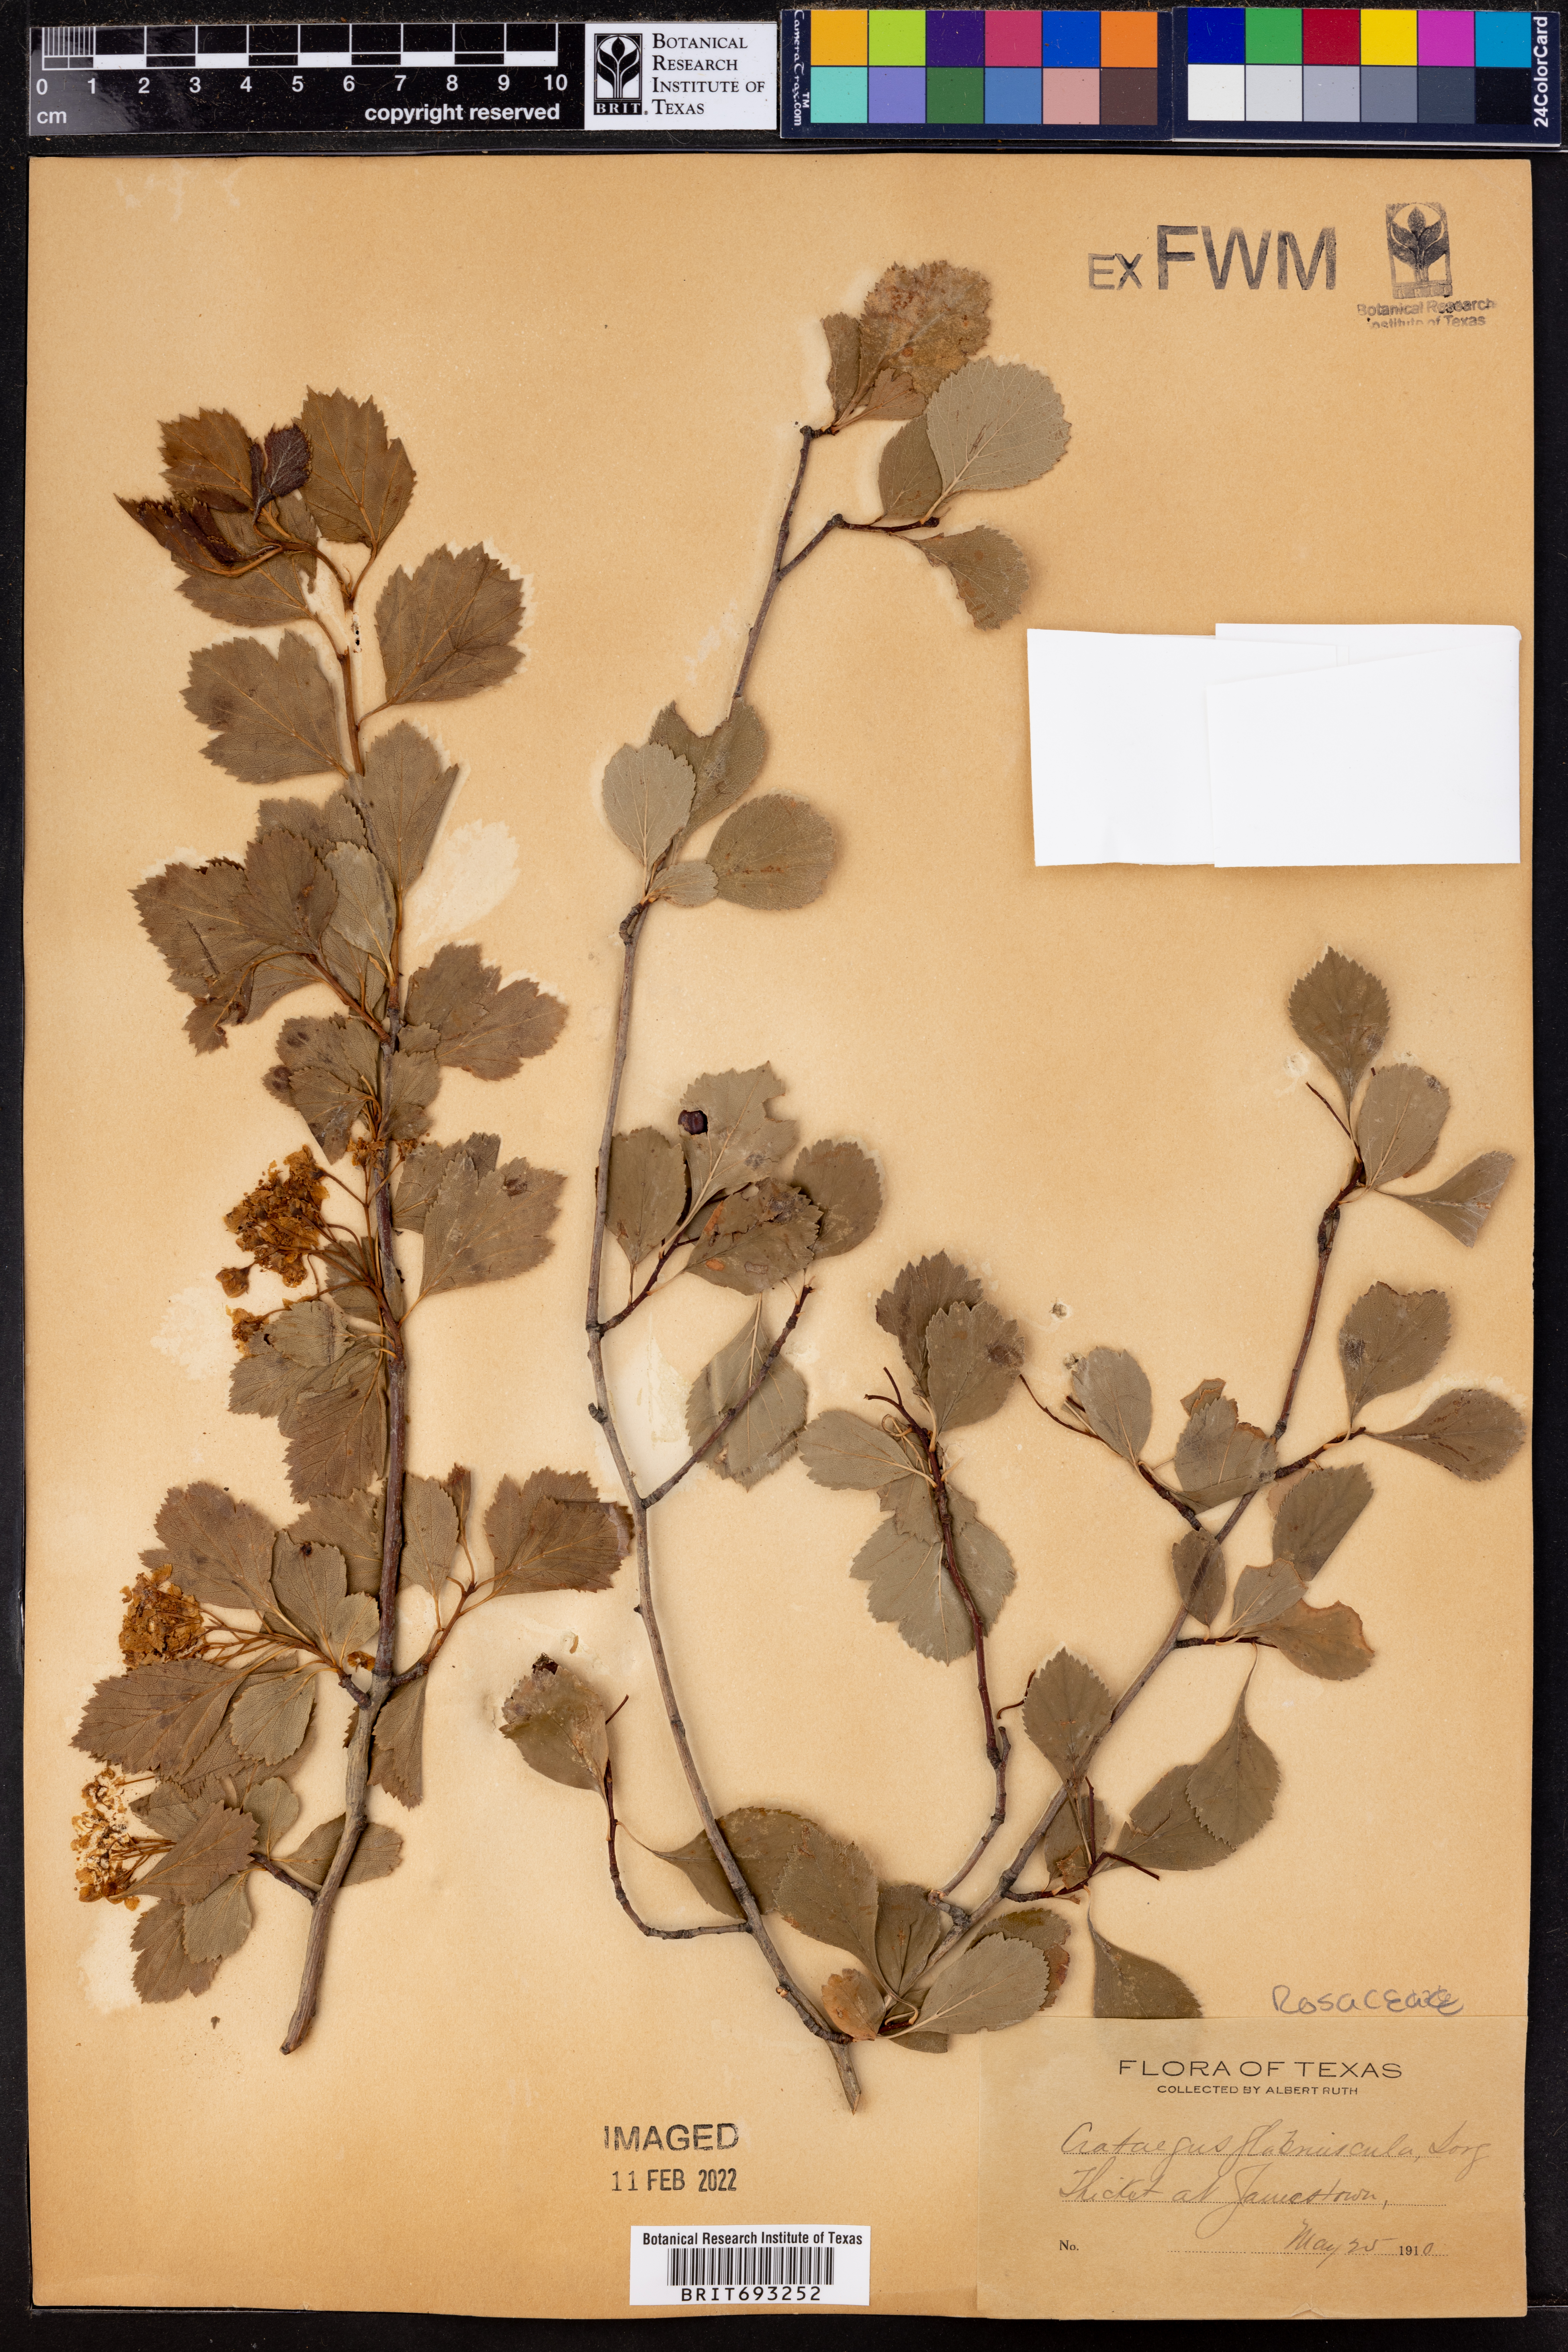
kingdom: Plantae
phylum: Tracheophyta
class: Magnoliopsida
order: Rosales
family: Rosaceae
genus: Crataegus
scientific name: Crataegus viridis
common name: Southernthorn
